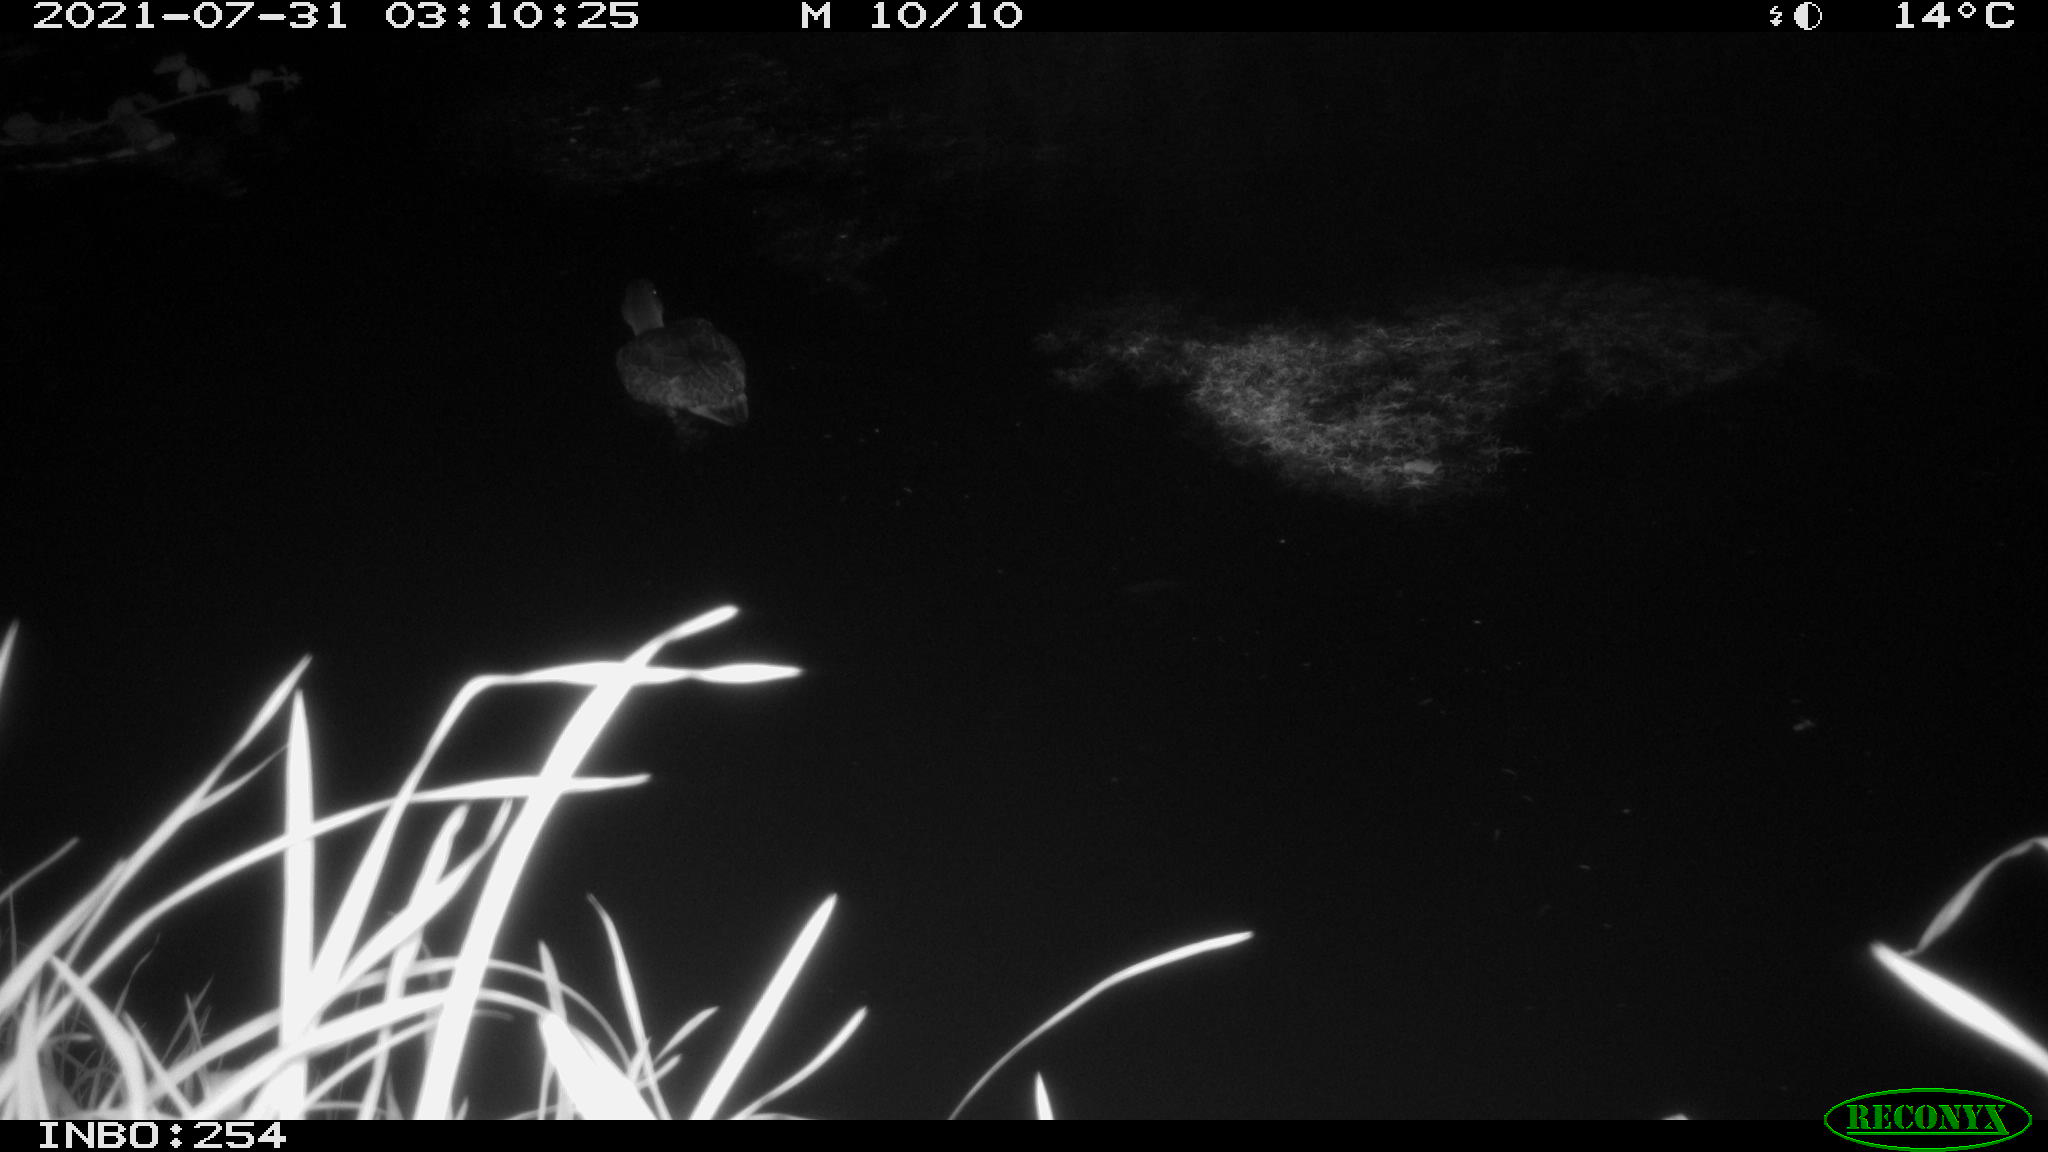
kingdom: Animalia
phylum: Chordata
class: Aves
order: Anseriformes
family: Anatidae
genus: Anas
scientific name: Anas platyrhynchos
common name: Mallard
